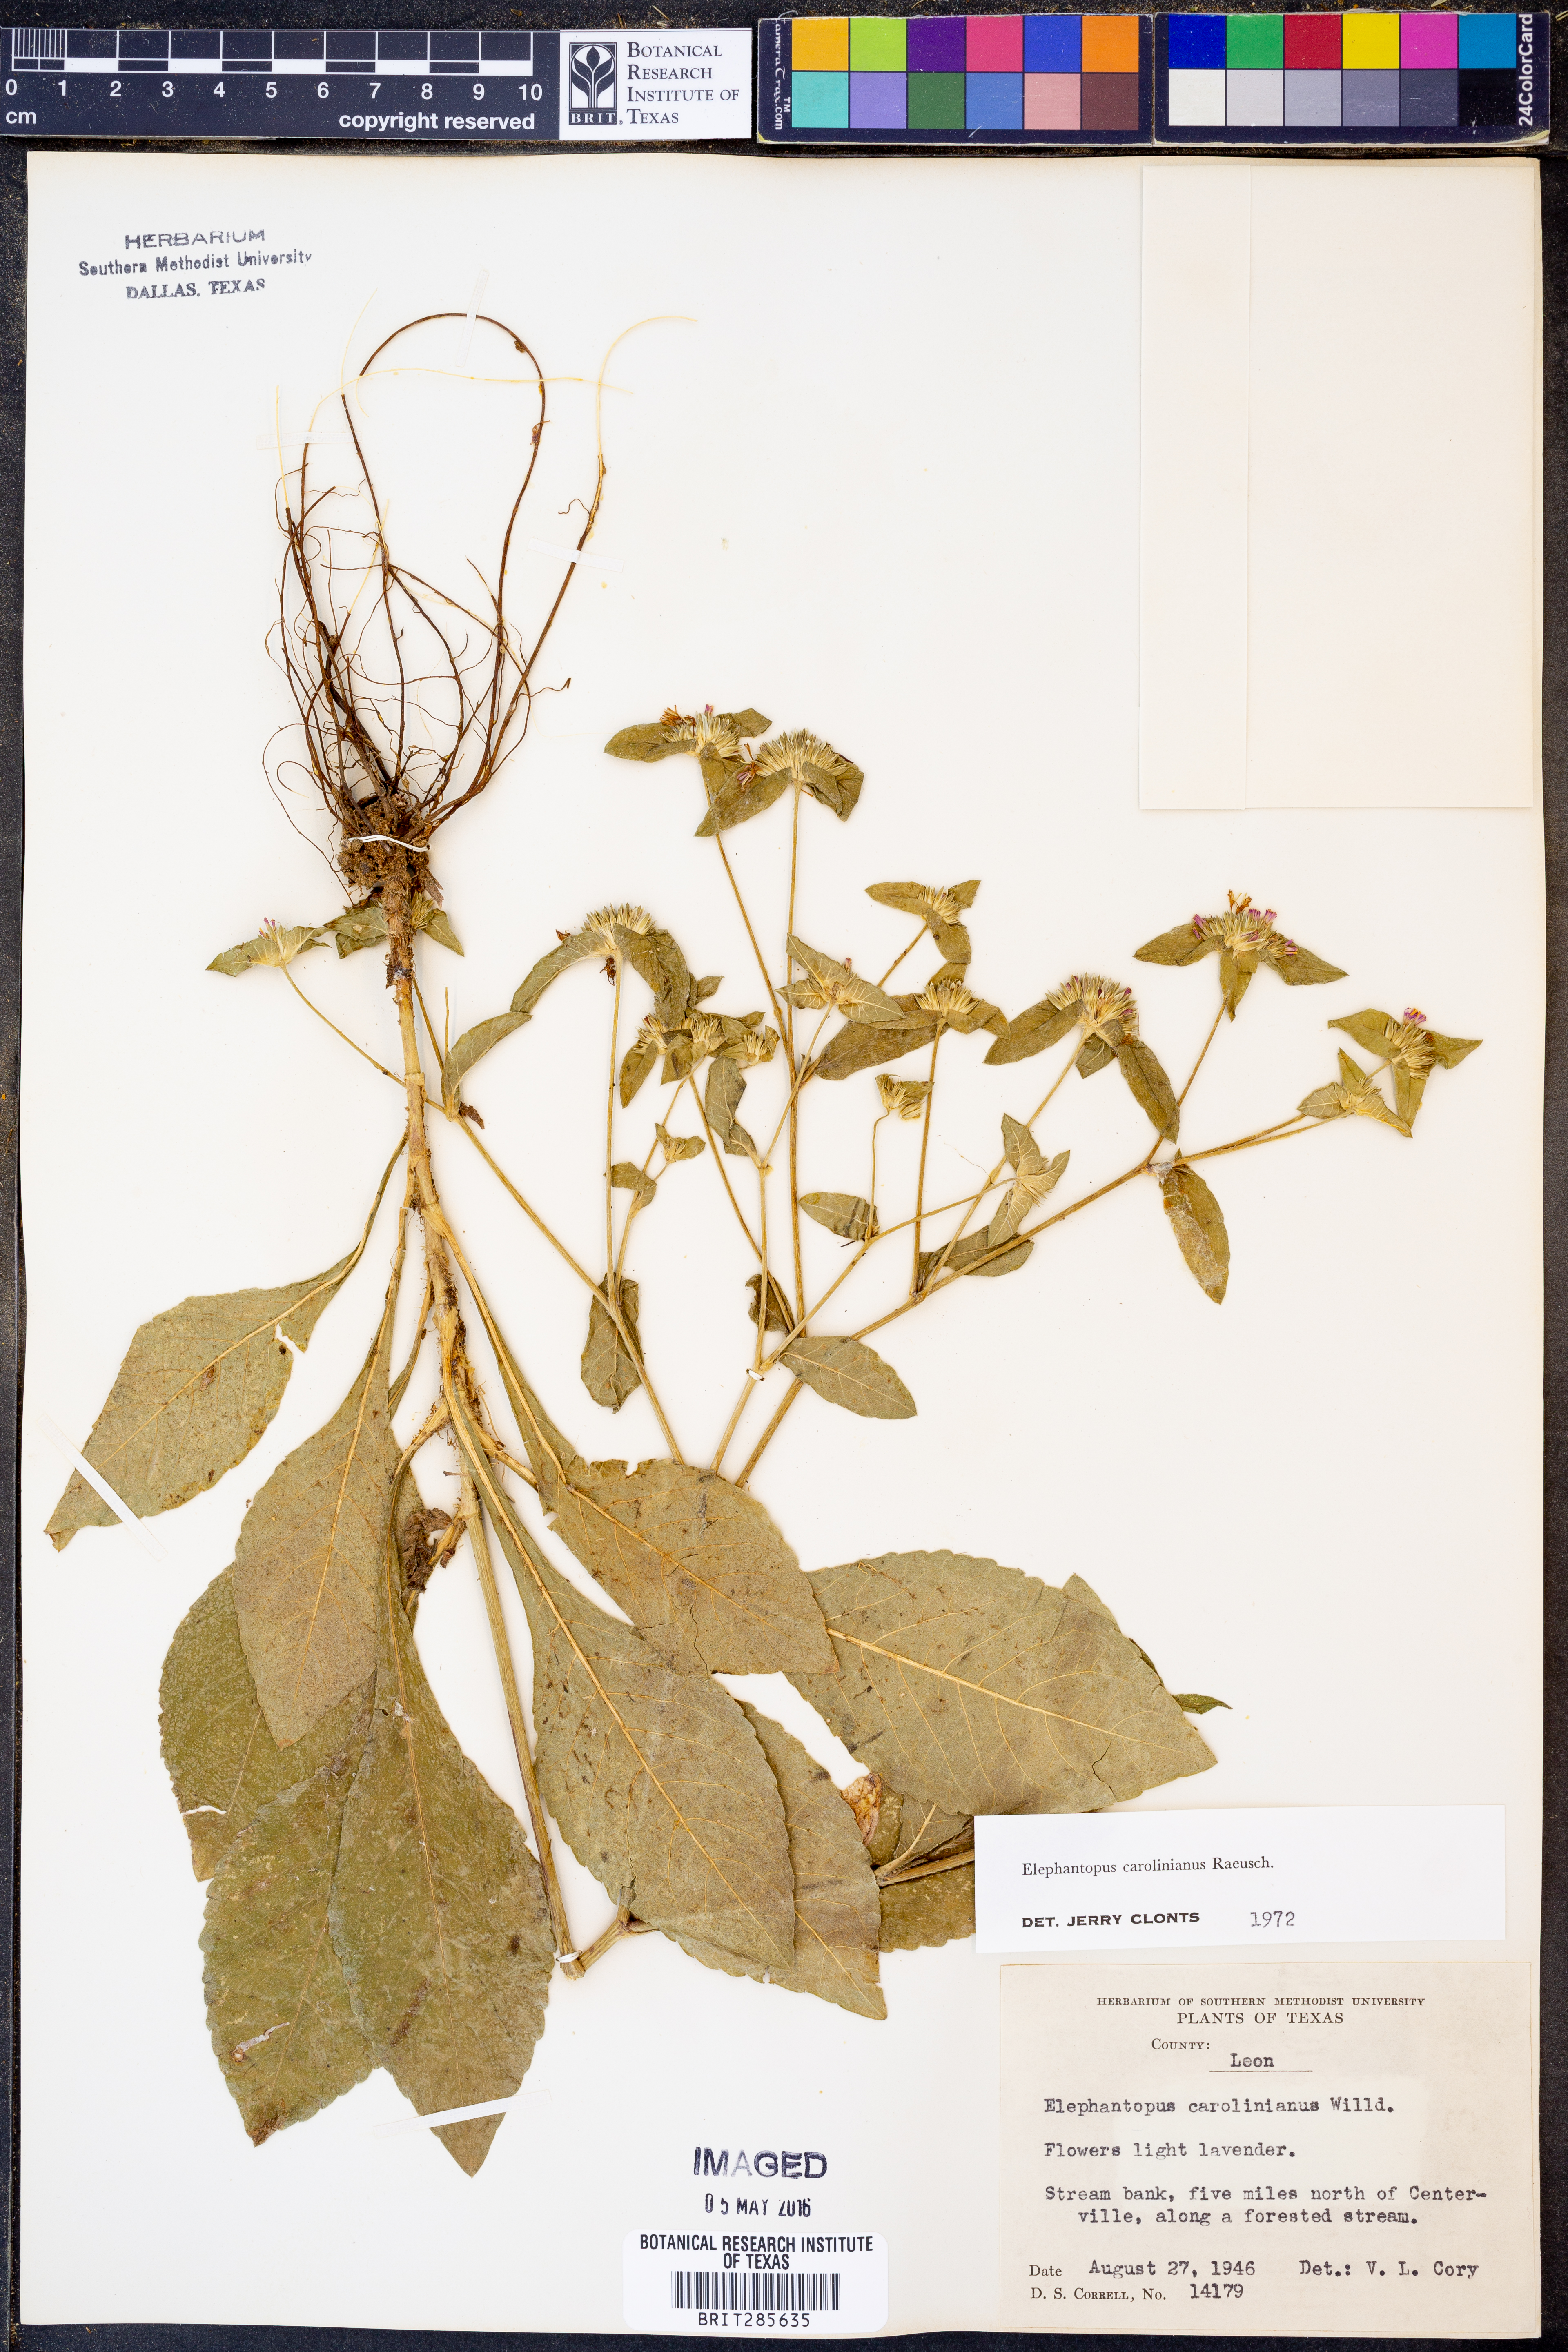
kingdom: Plantae
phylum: Tracheophyta
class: Magnoliopsida
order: Asterales
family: Asteraceae
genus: Elephantopus
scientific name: Elephantopus carolinianus
